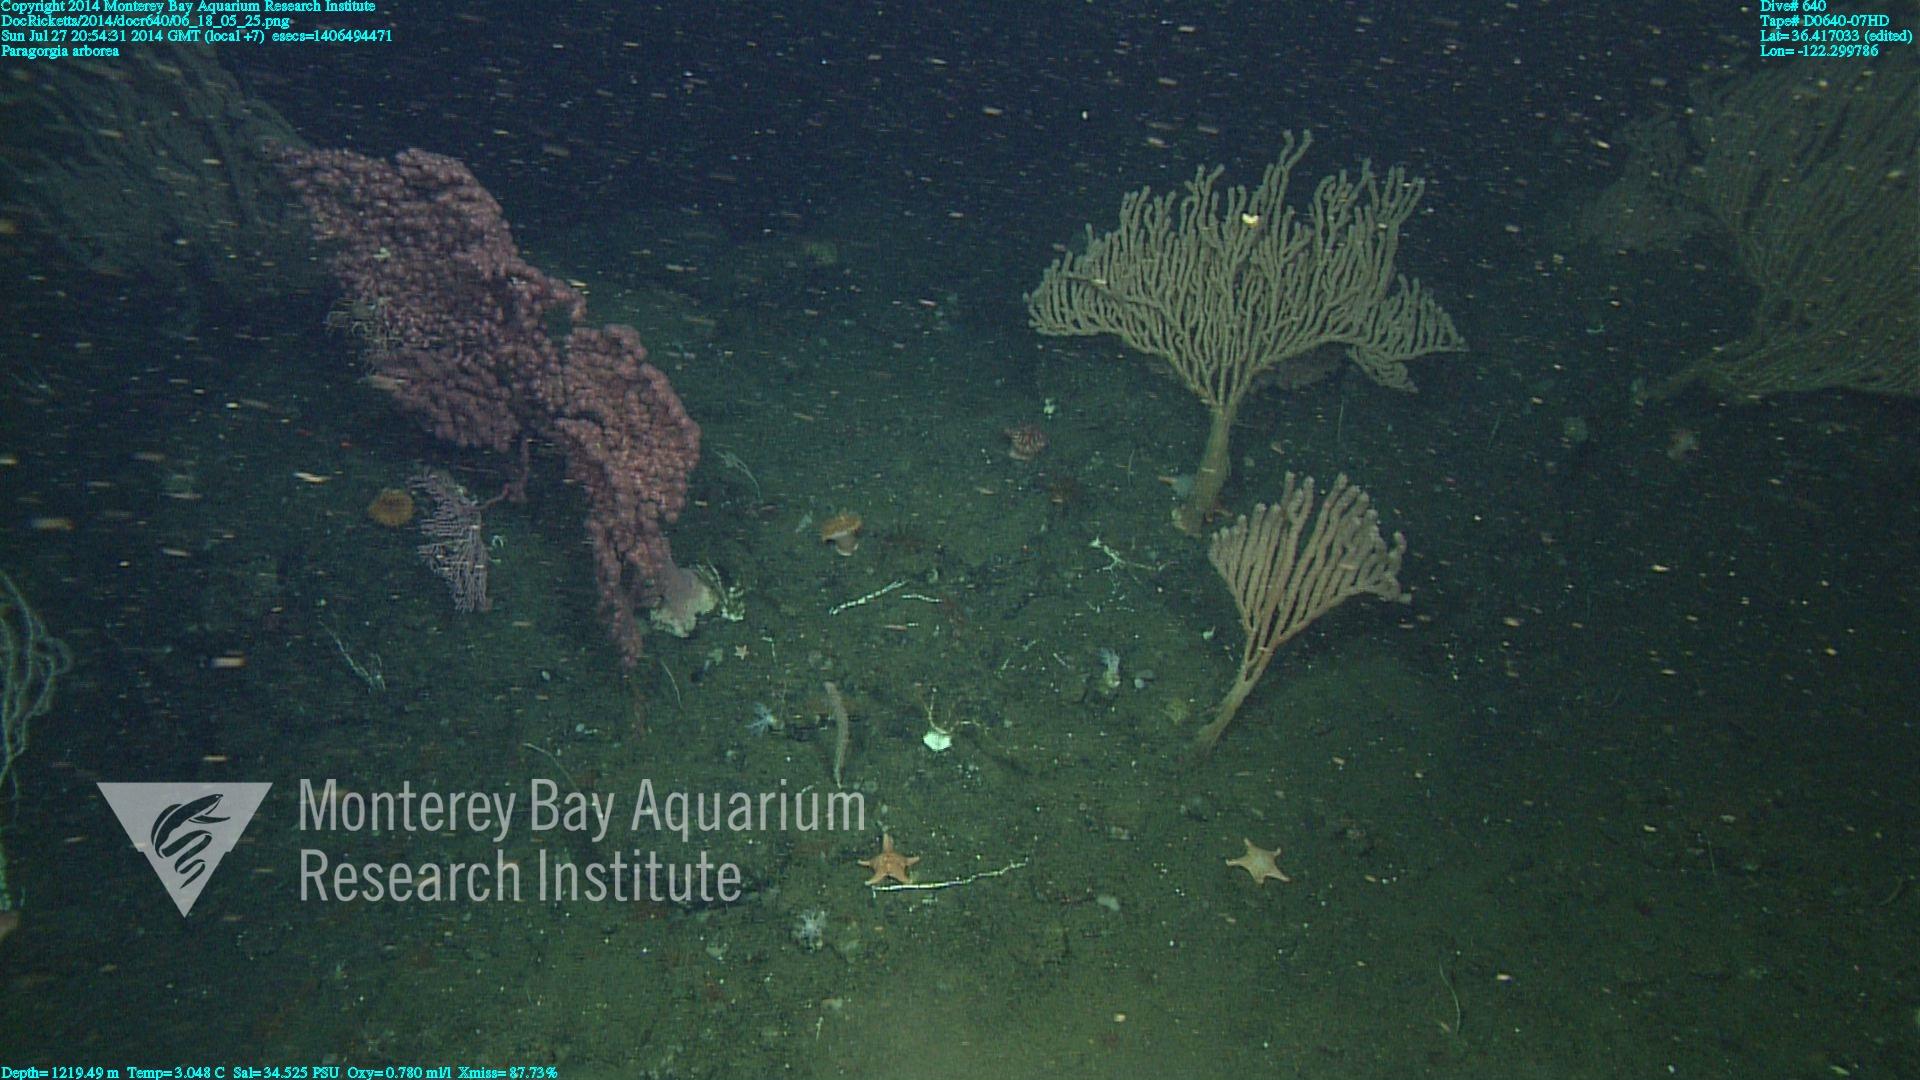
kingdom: Animalia
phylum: Cnidaria
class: Anthozoa
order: Scleralcyonacea
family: Coralliidae
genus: Paragorgia
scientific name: Paragorgia arborea
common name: Bubble gum coral
